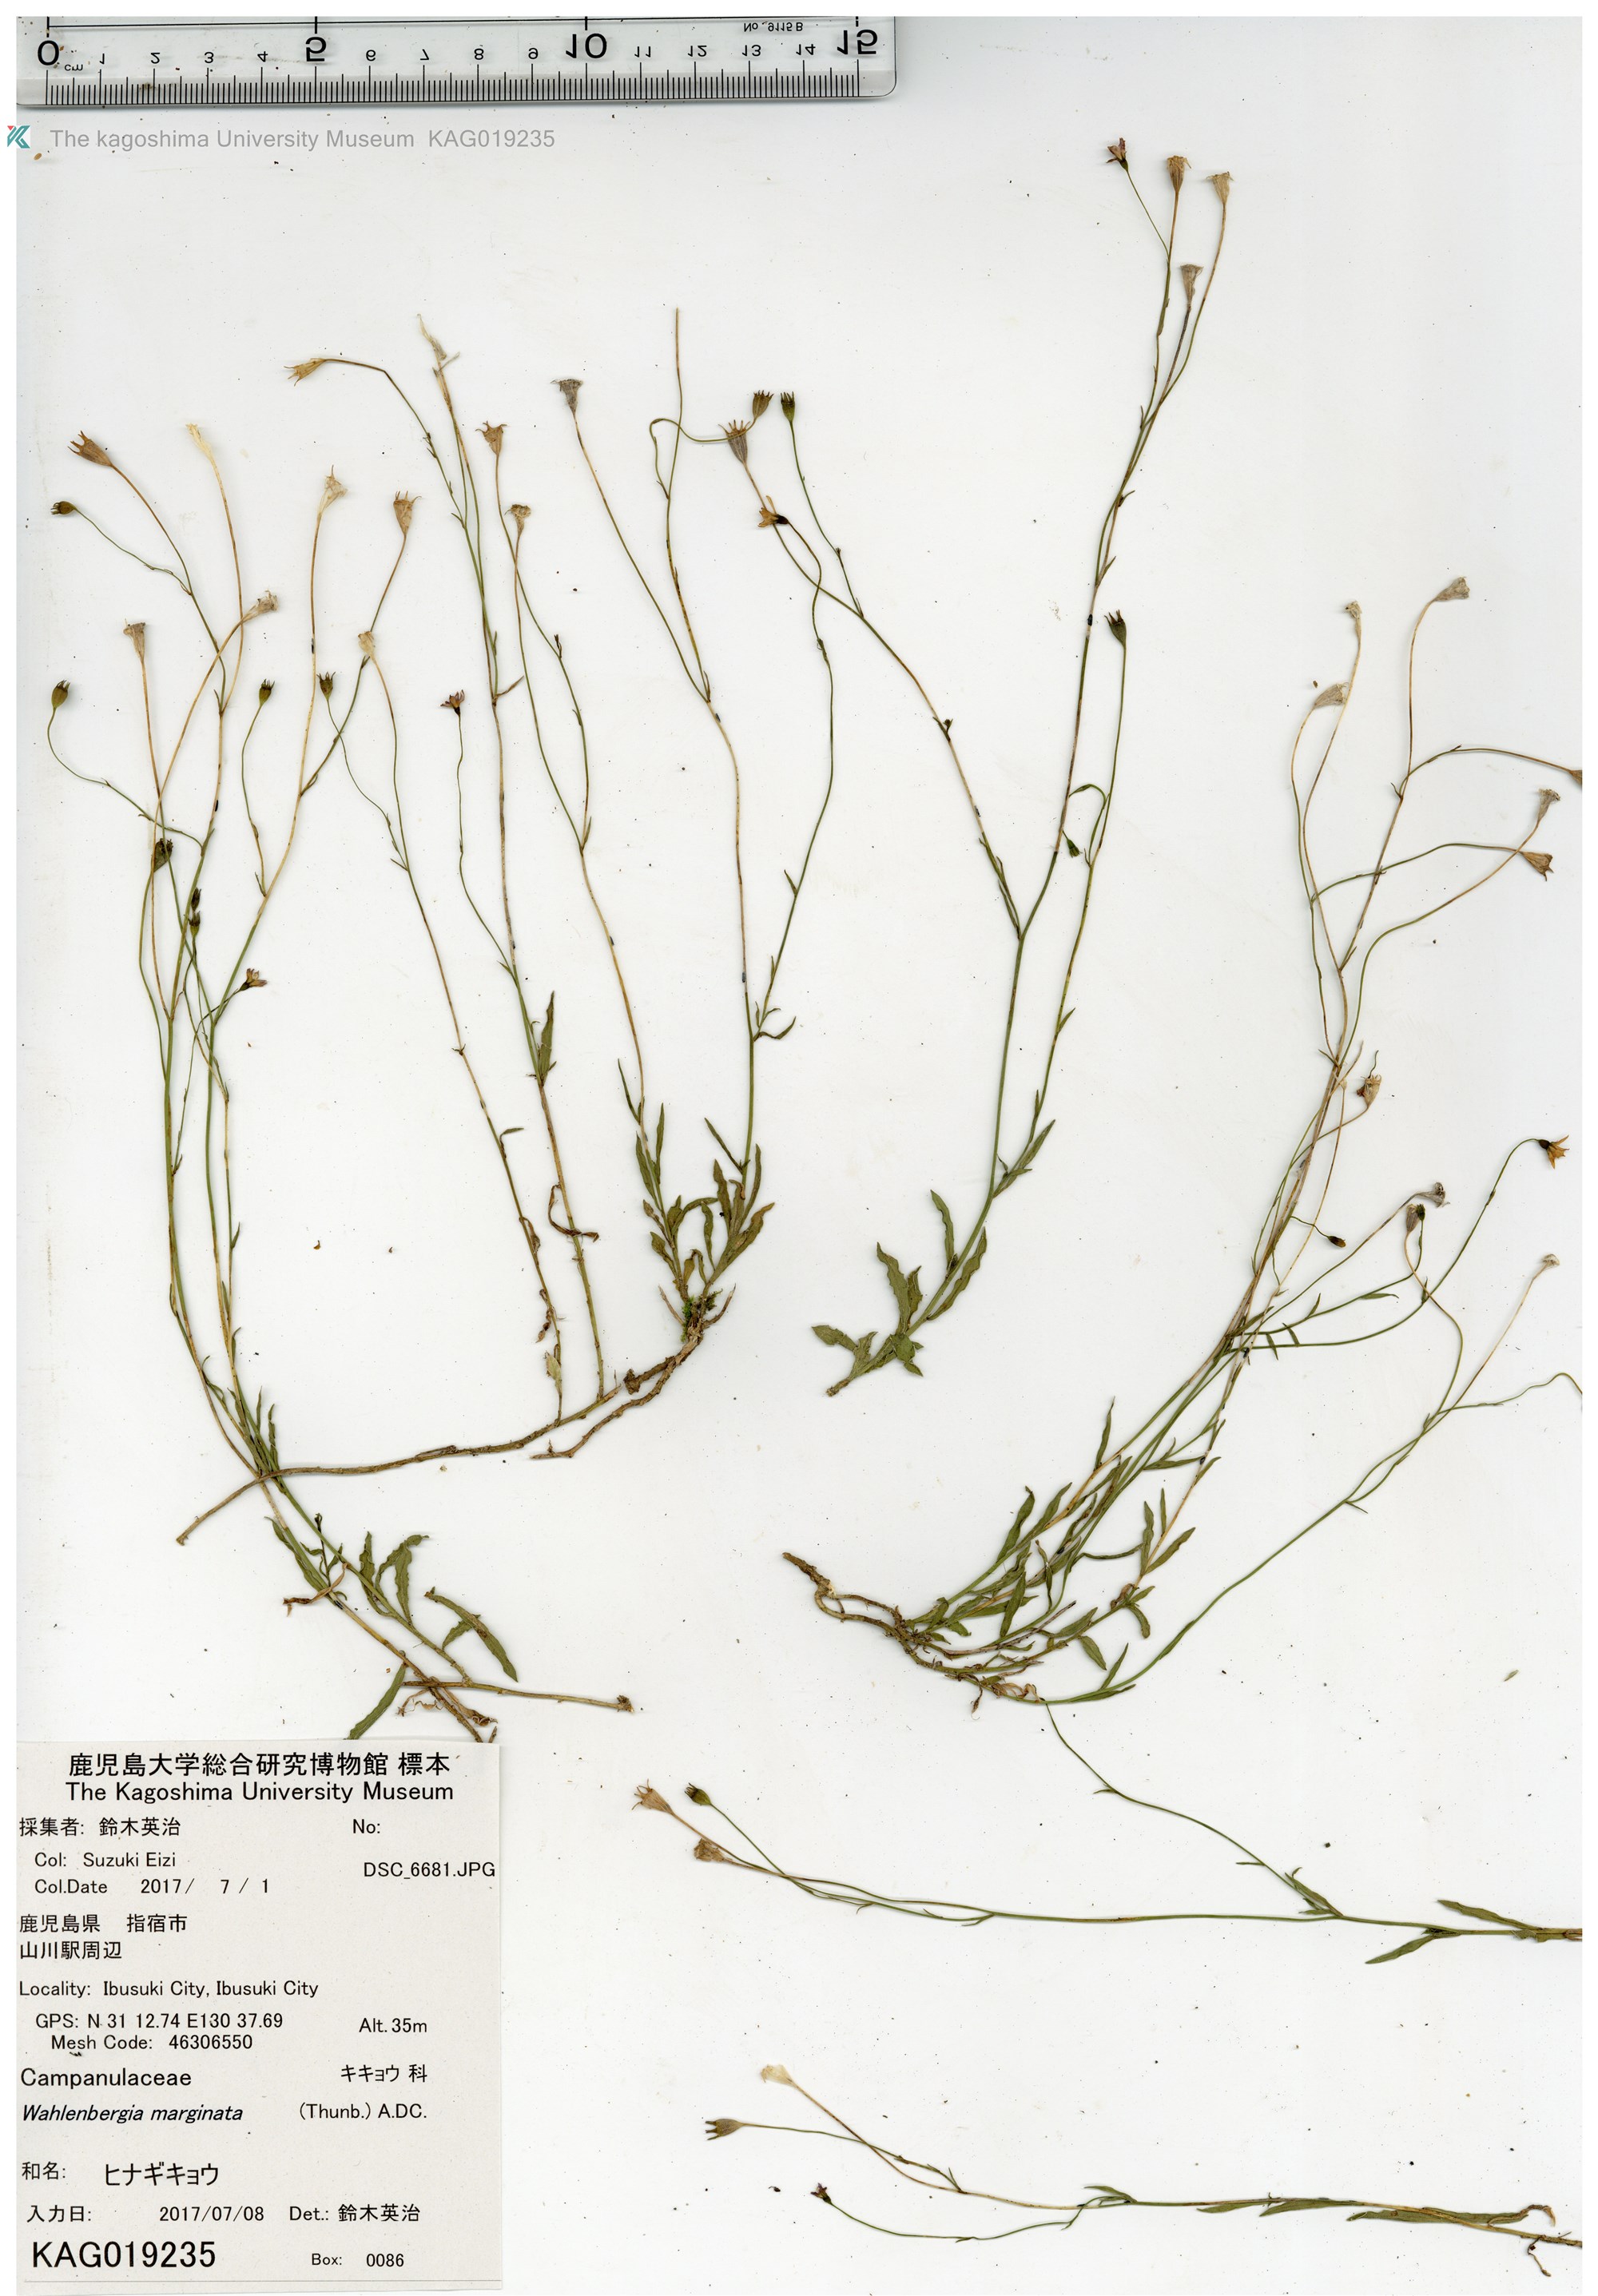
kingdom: Plantae
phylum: Tracheophyta
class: Magnoliopsida
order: Asterales
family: Campanulaceae
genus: Wahlenbergia
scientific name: Wahlenbergia marginata
